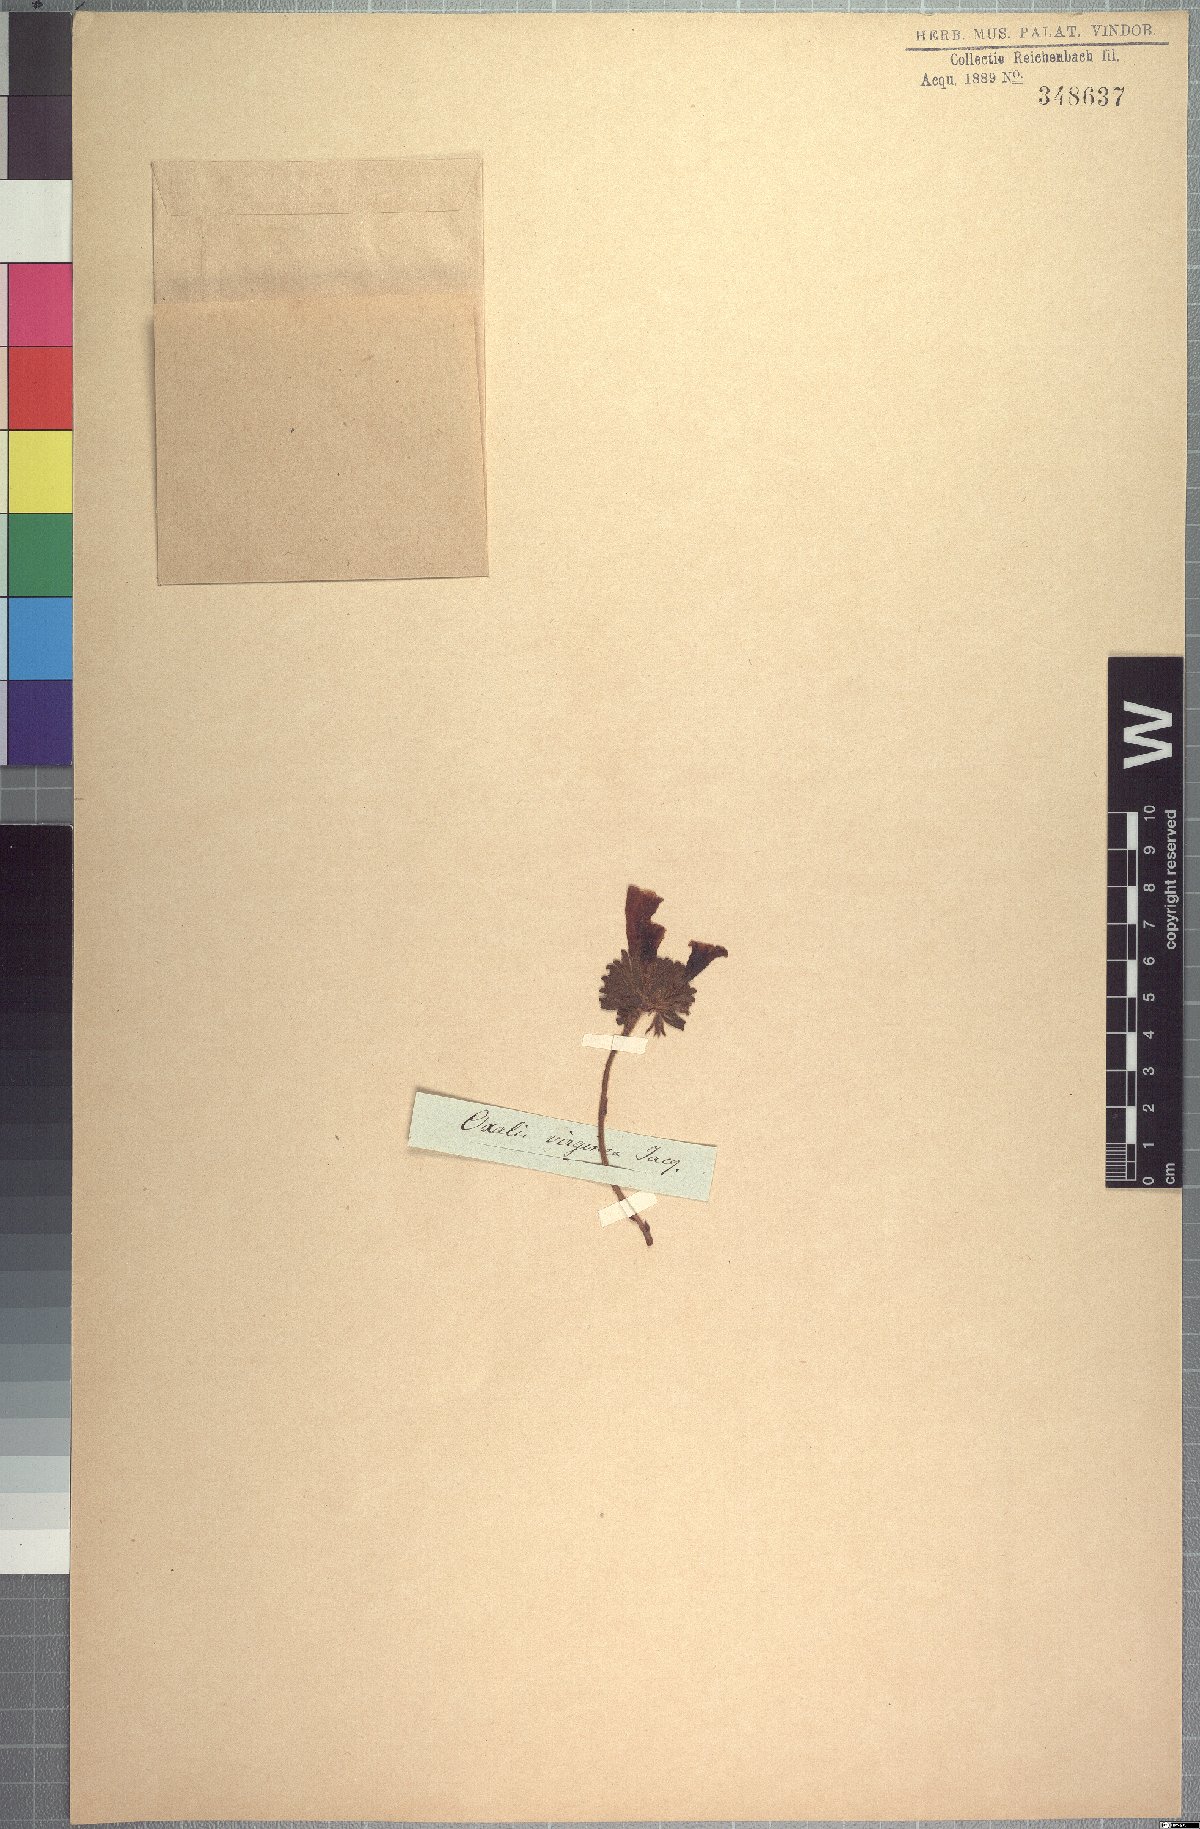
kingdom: Plantae
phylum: Tracheophyta
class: Magnoliopsida
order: Oxalidales
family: Oxalidaceae
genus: Oxalis
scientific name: Oxalis adspersa
